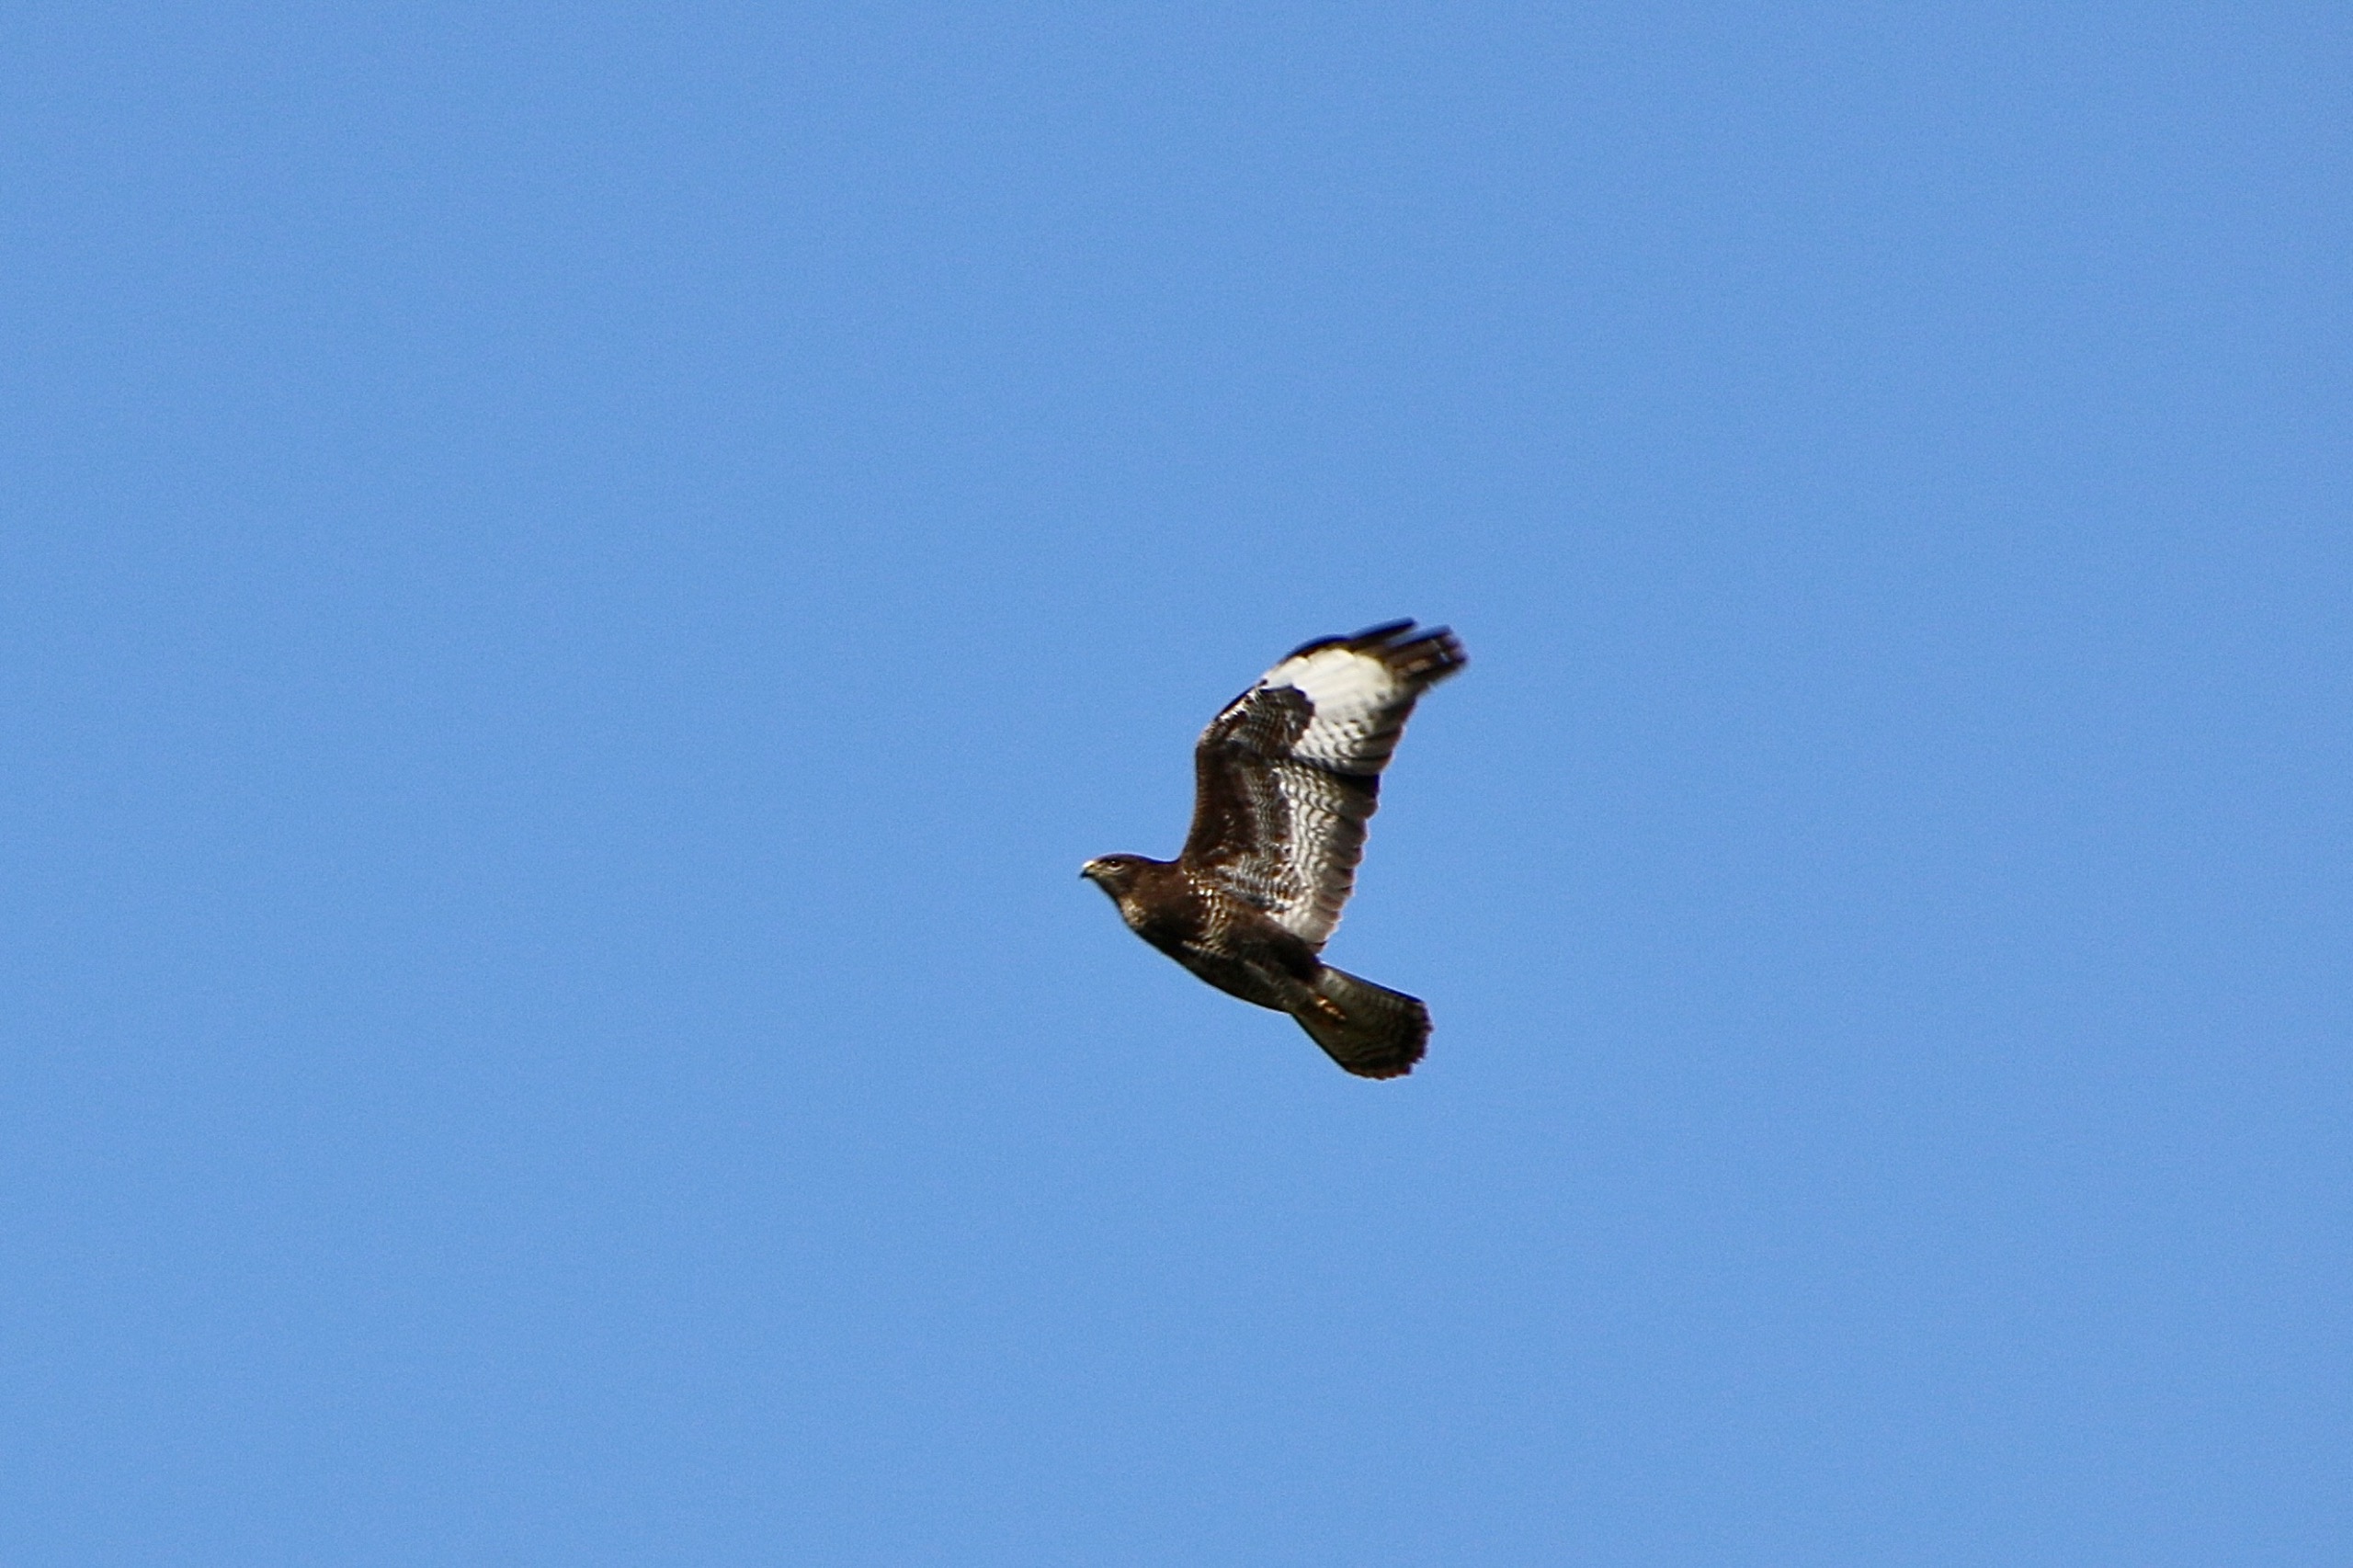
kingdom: Animalia
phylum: Chordata
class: Aves
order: Accipitriformes
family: Accipitridae
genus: Buteo
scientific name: Buteo buteo
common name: Musvåge
